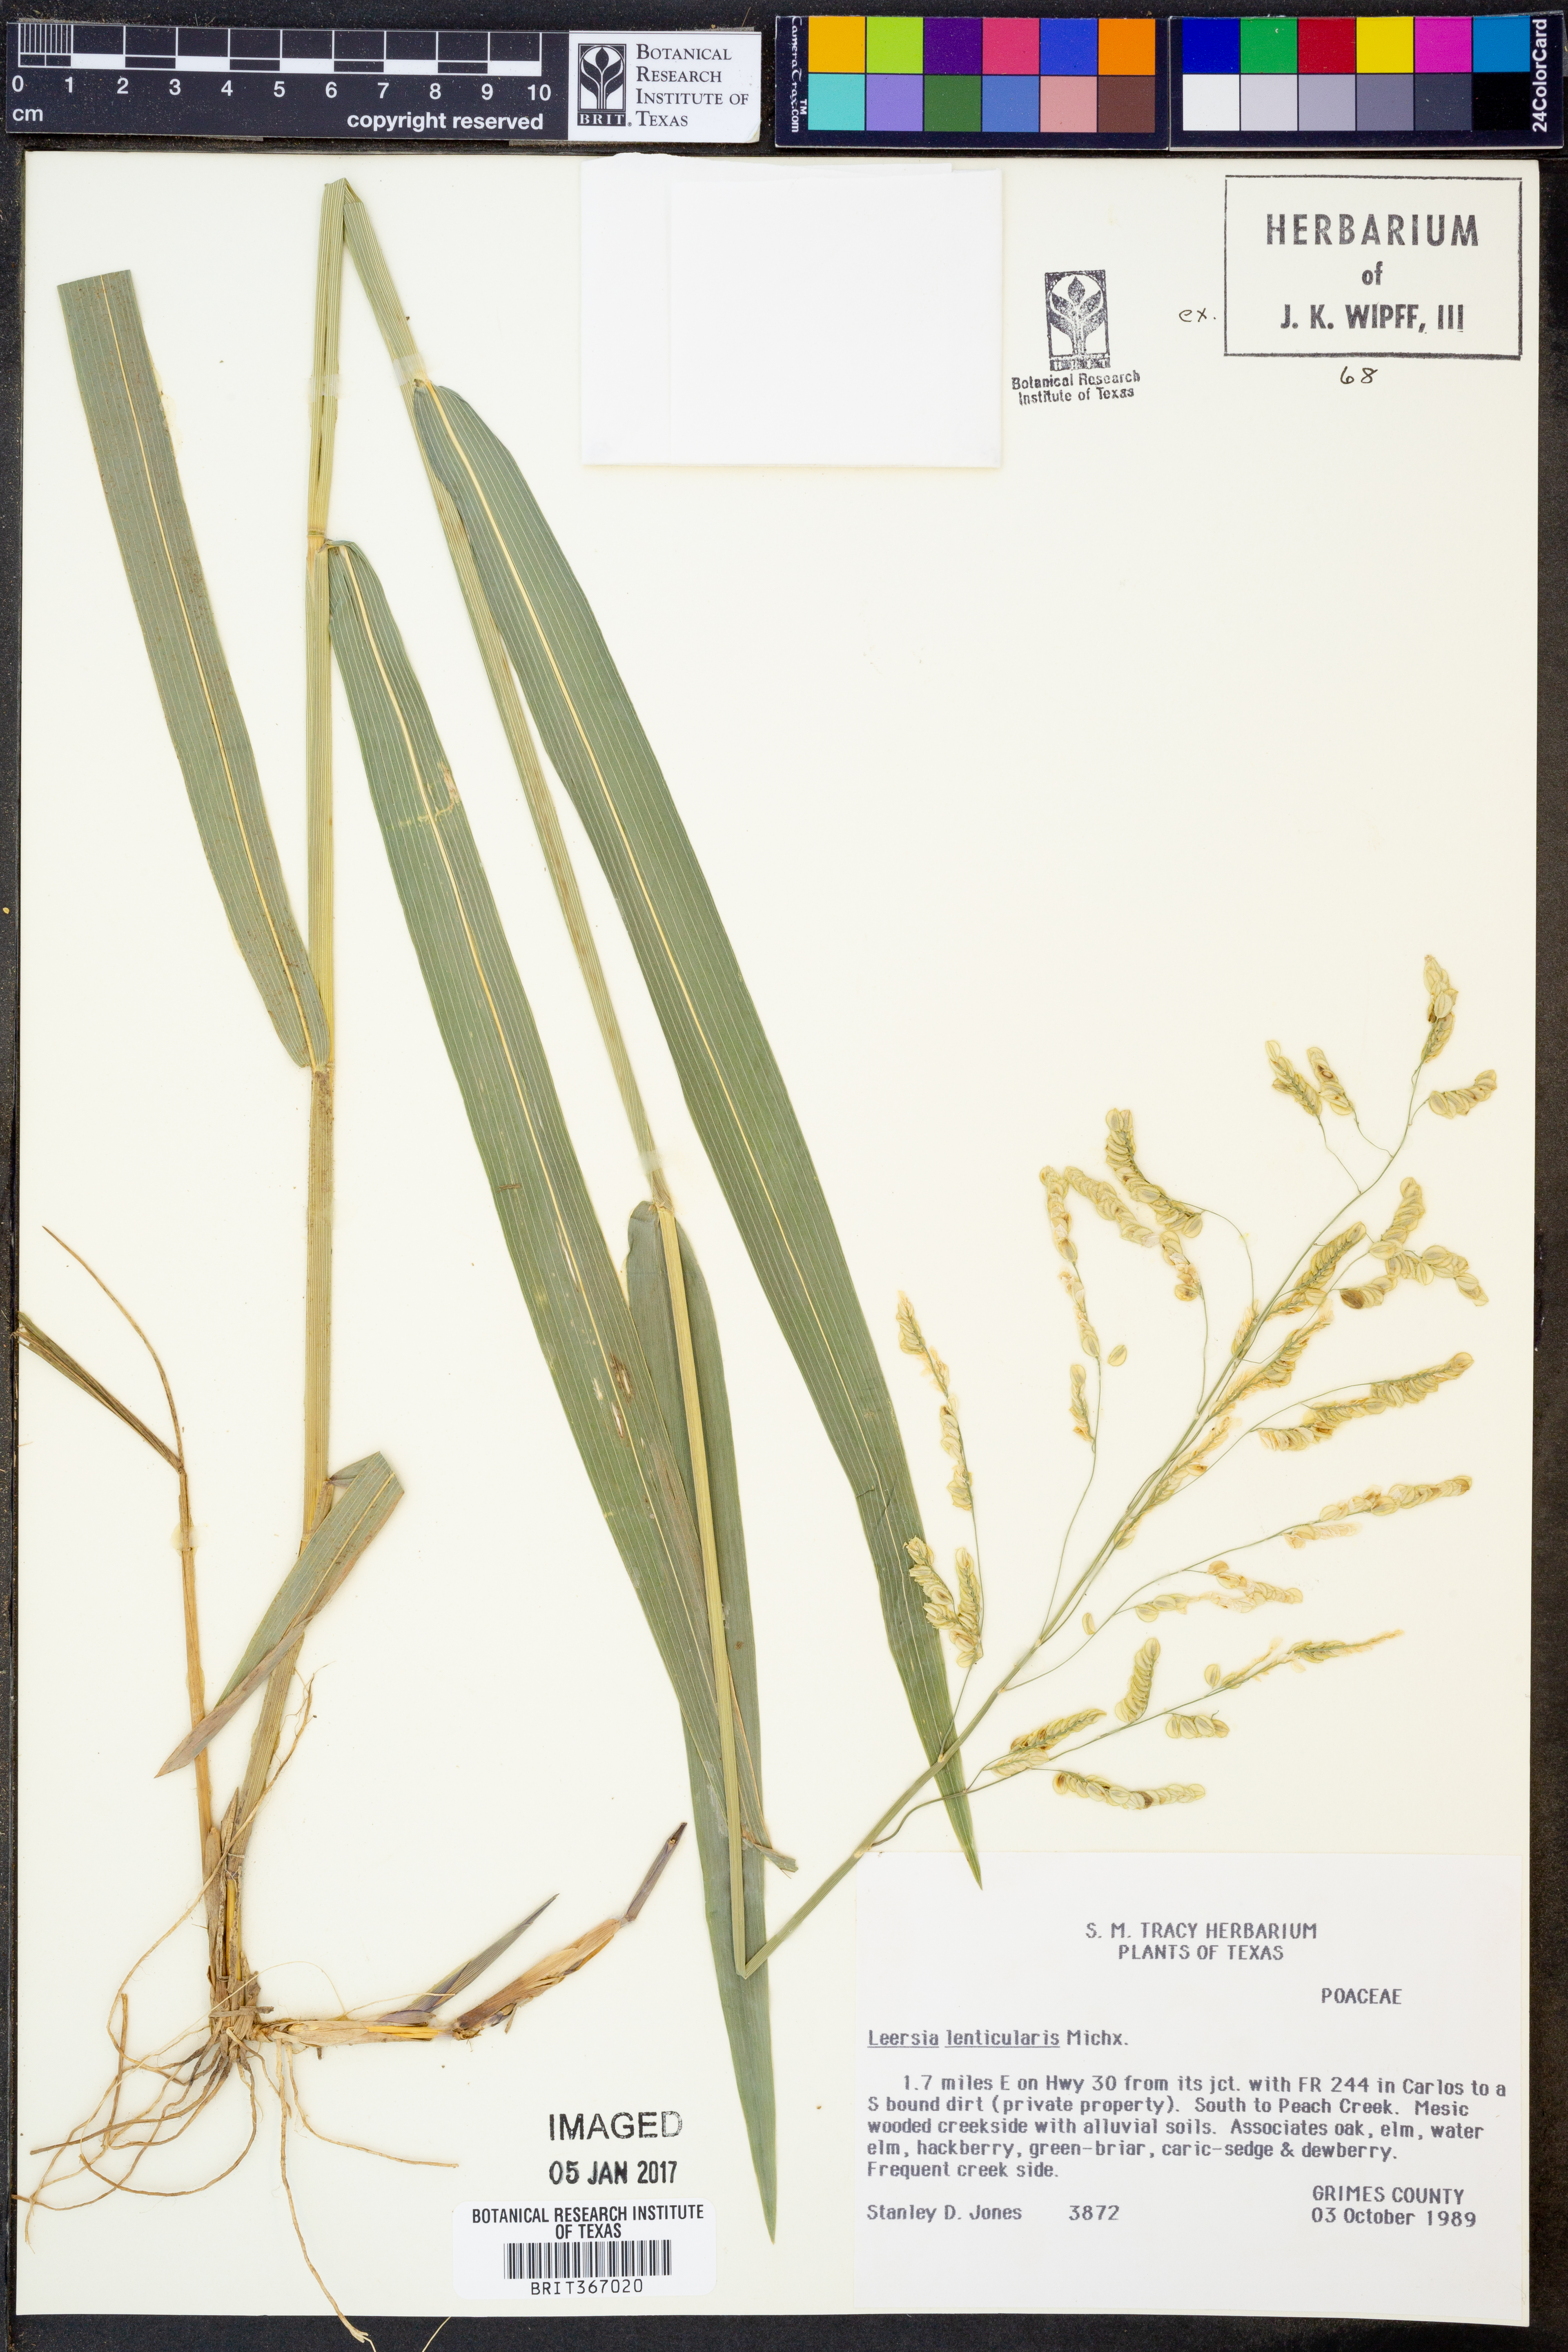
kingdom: Plantae
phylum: Tracheophyta
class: Liliopsida
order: Poales
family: Poaceae
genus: Leersia
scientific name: Leersia lenticularis
